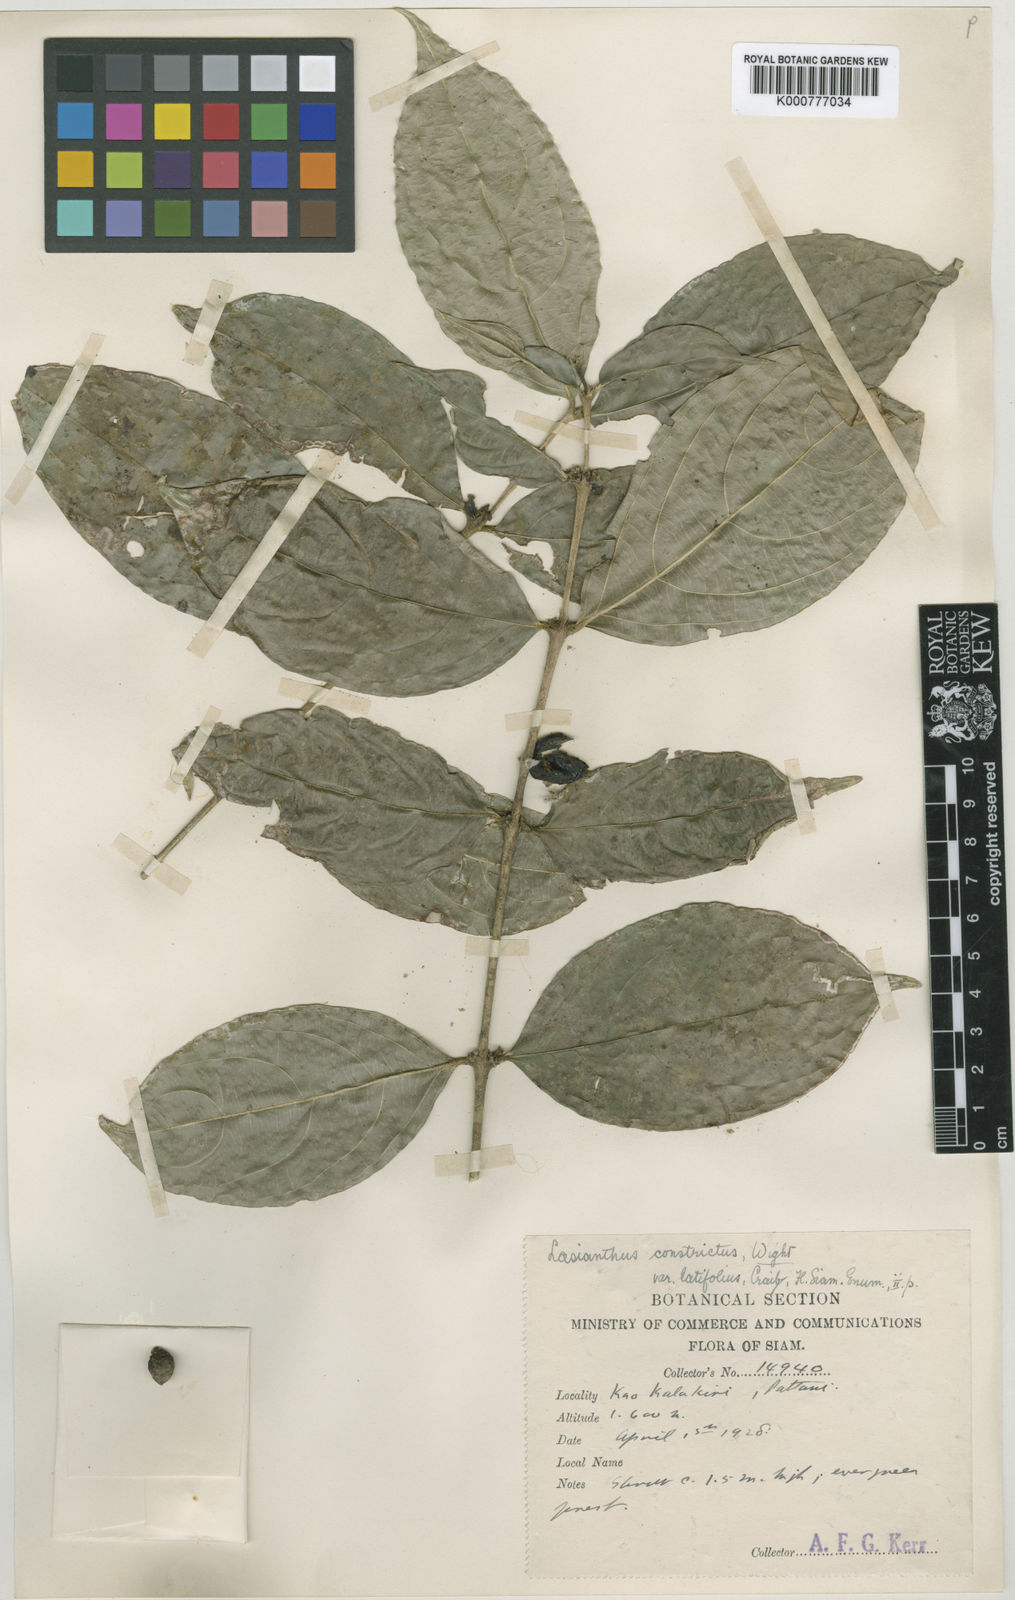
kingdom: Plantae
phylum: Tracheophyta
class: Magnoliopsida
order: Gentianales
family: Rubiaceae
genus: Lasianthus
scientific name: Lasianthus constrictus
